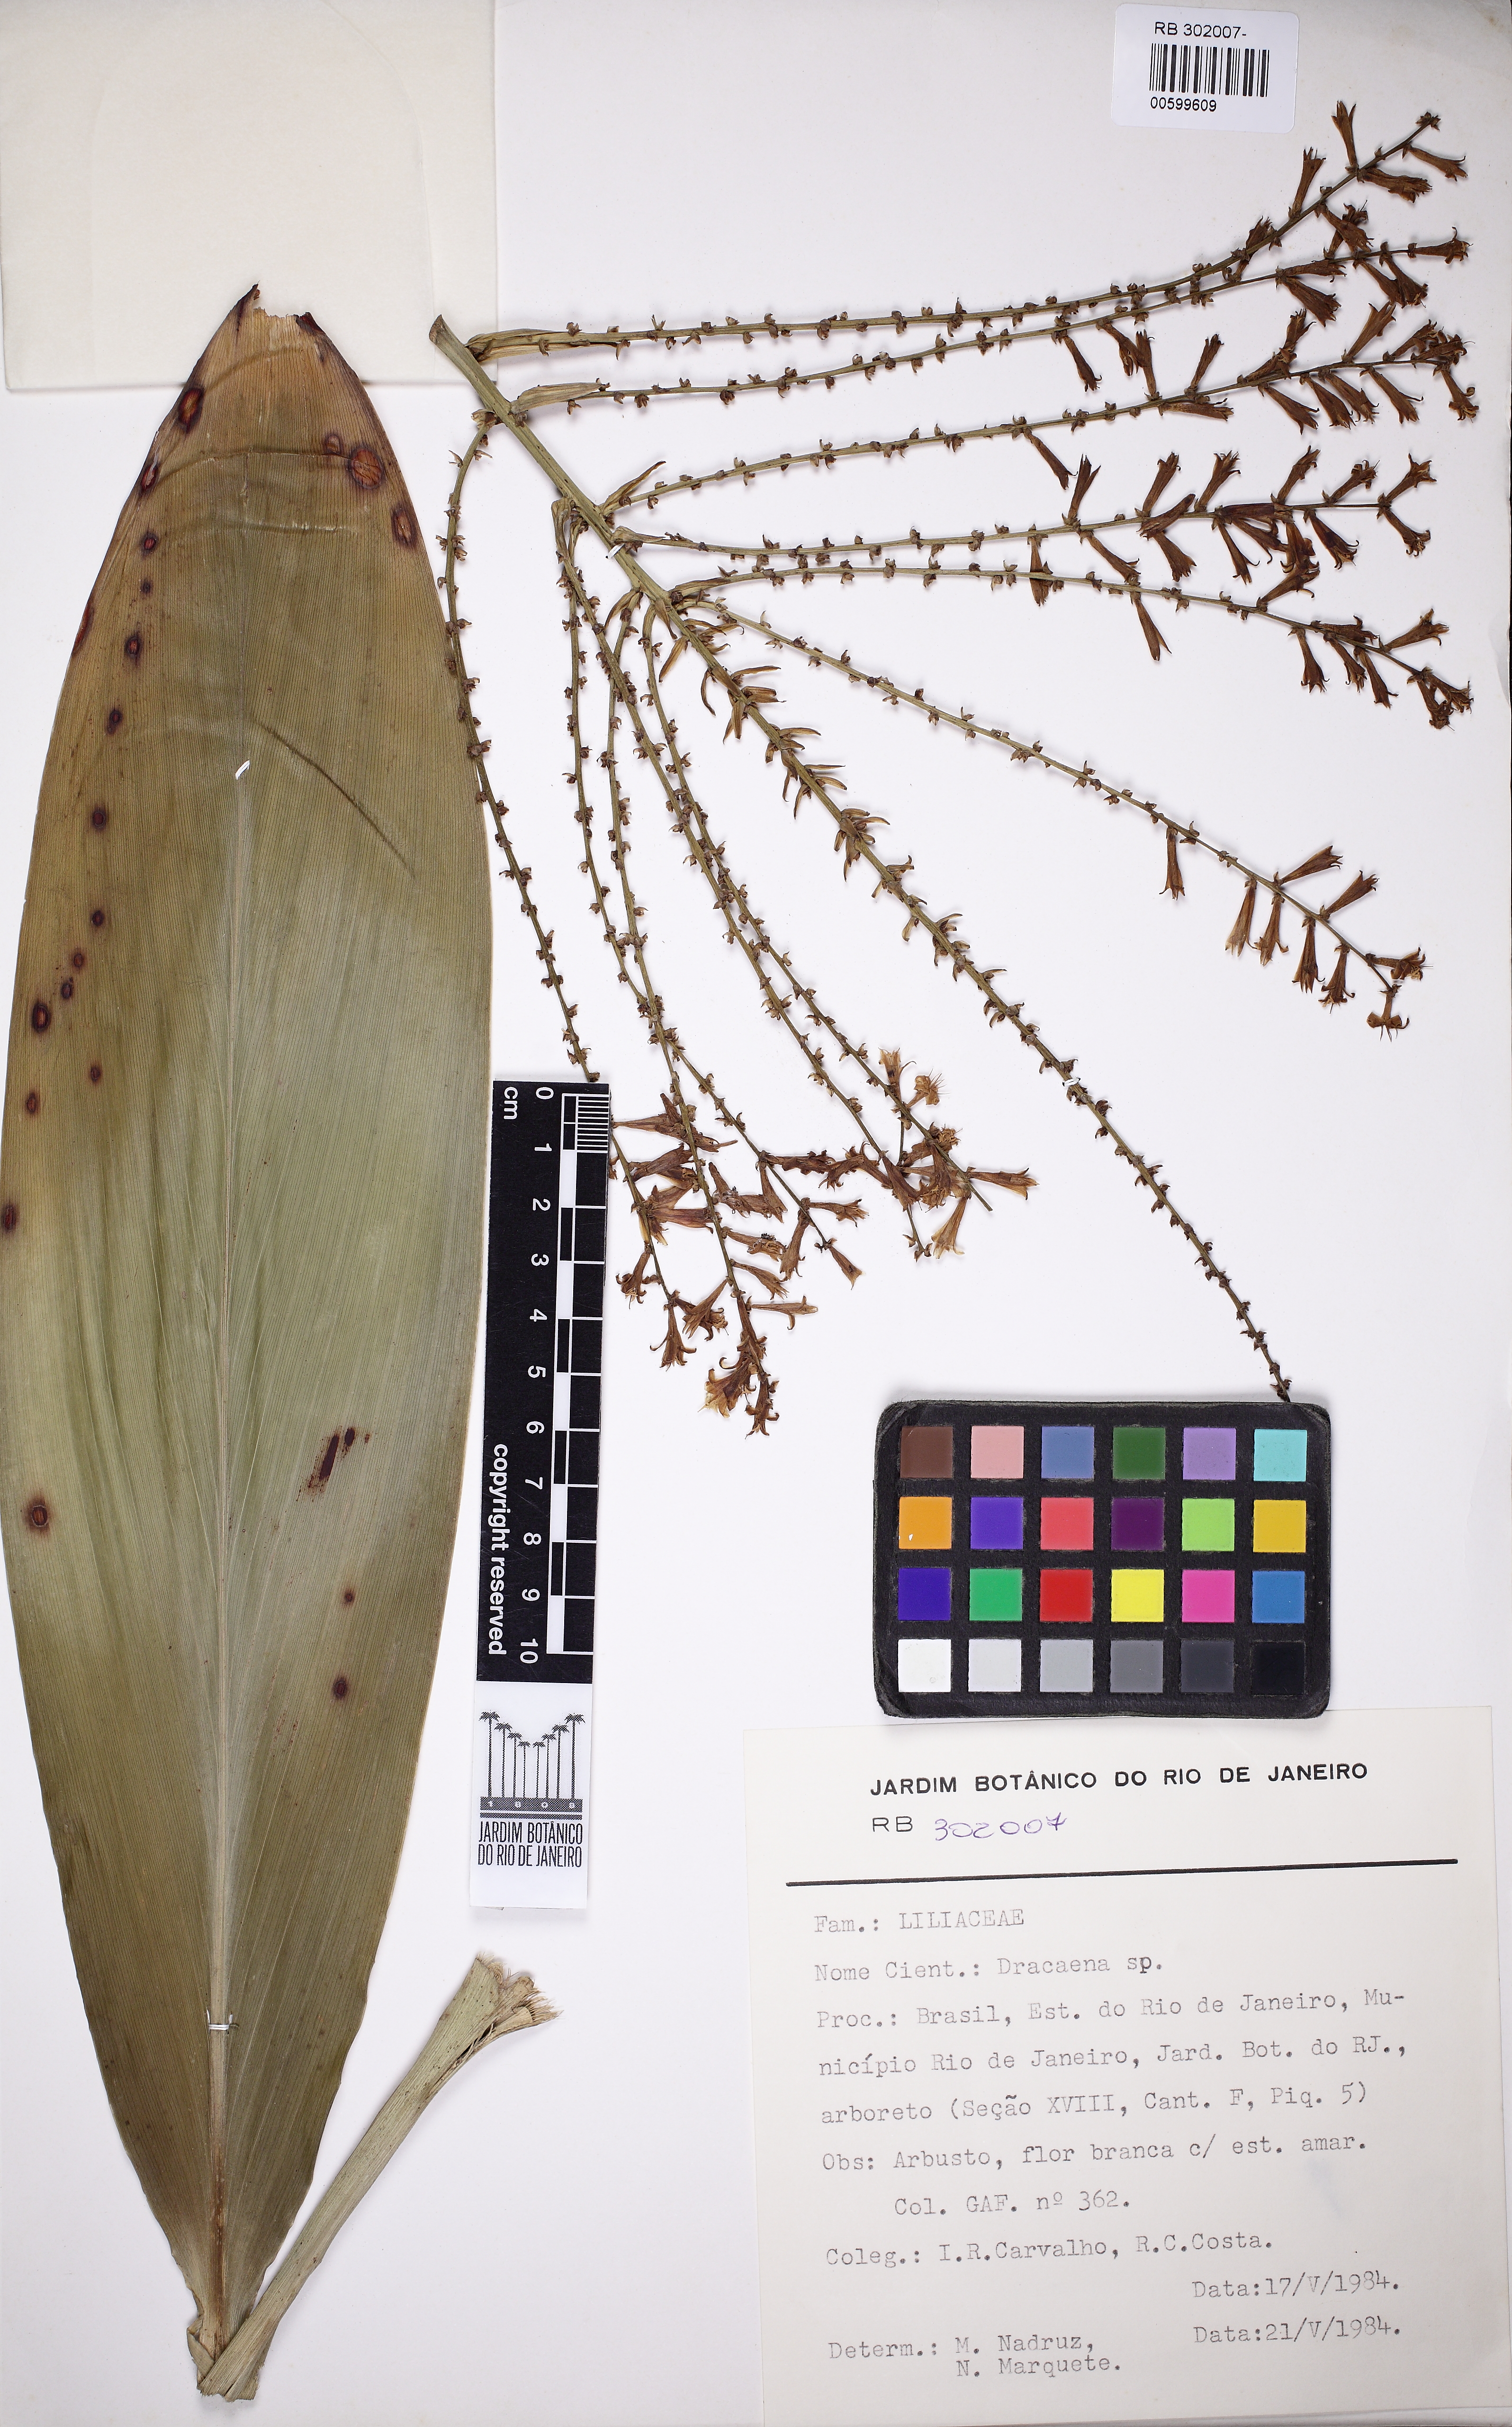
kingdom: Plantae
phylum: Tracheophyta
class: Liliopsida
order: Asparagales
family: Asparagaceae
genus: Dracaena
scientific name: Dracaena
